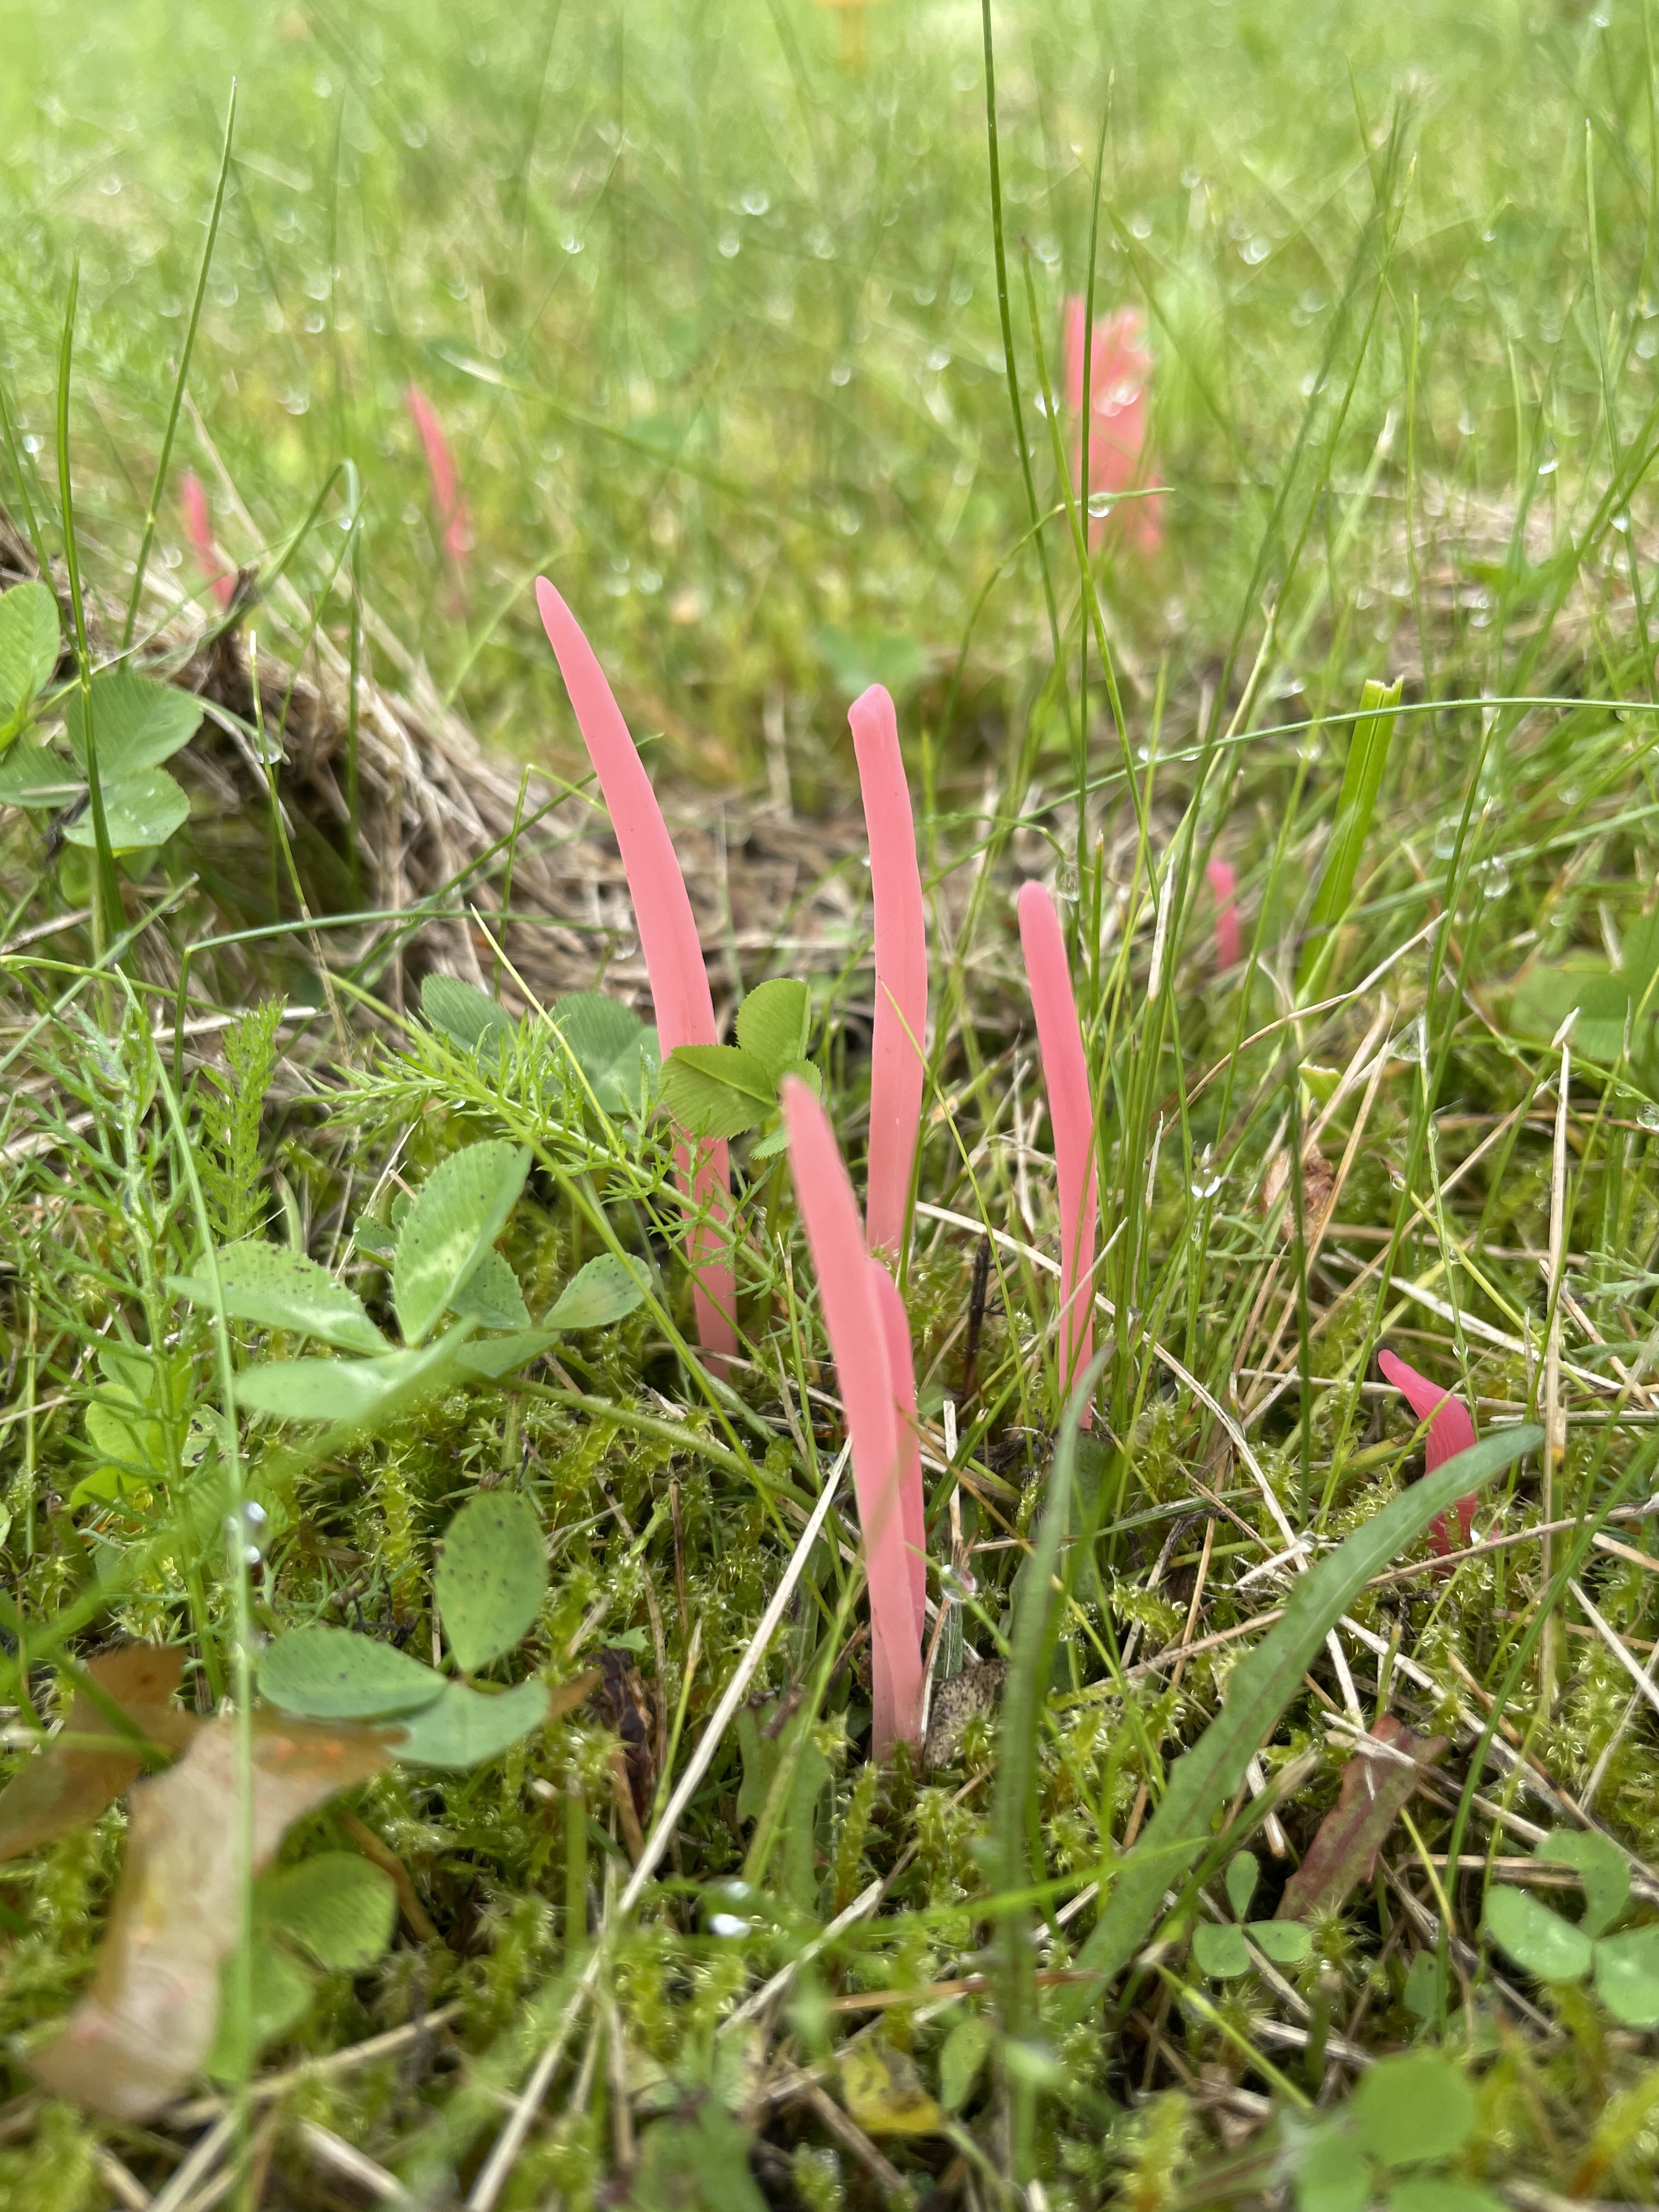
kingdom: Fungi
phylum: Basidiomycota
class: Agaricomycetes
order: Agaricales
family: Clavariaceae
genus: Clavaria
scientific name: Clavaria rosea
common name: Rose spindles
